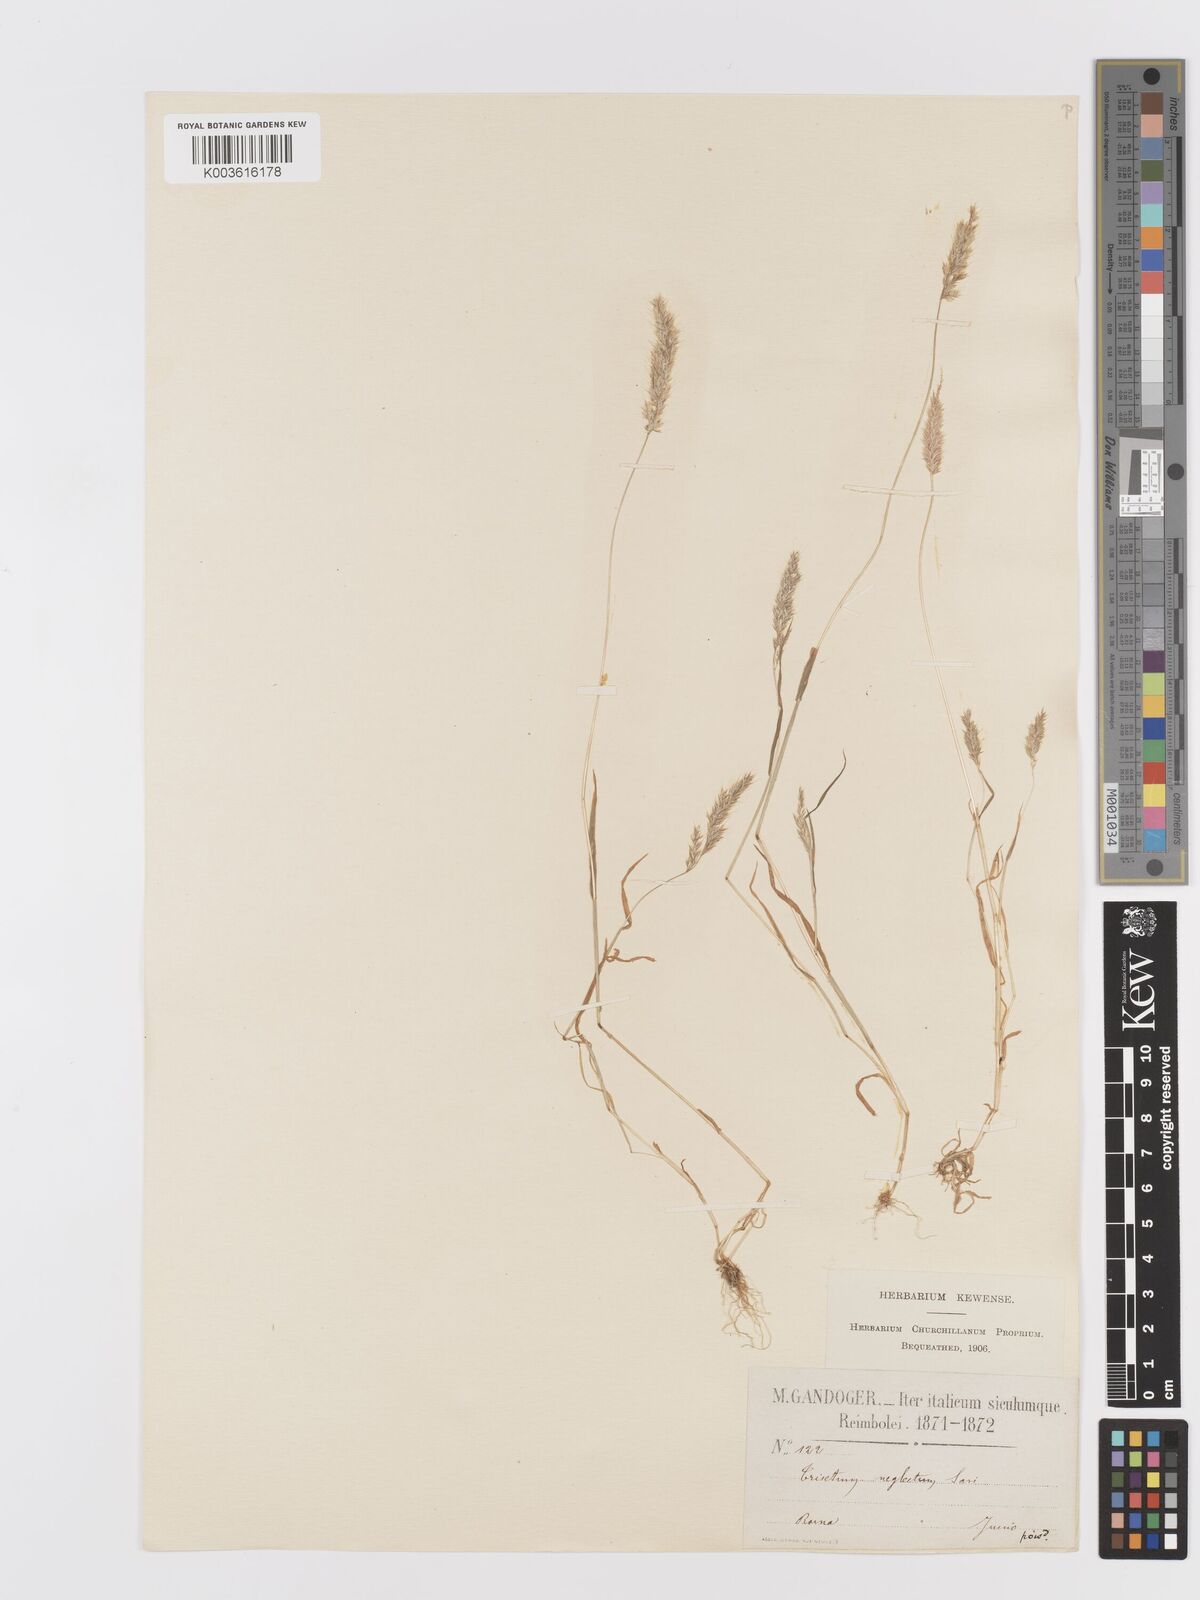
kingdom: Plantae
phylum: Tracheophyta
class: Liliopsida
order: Poales
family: Poaceae
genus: Trisetaria
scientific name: Trisetaria panicea
